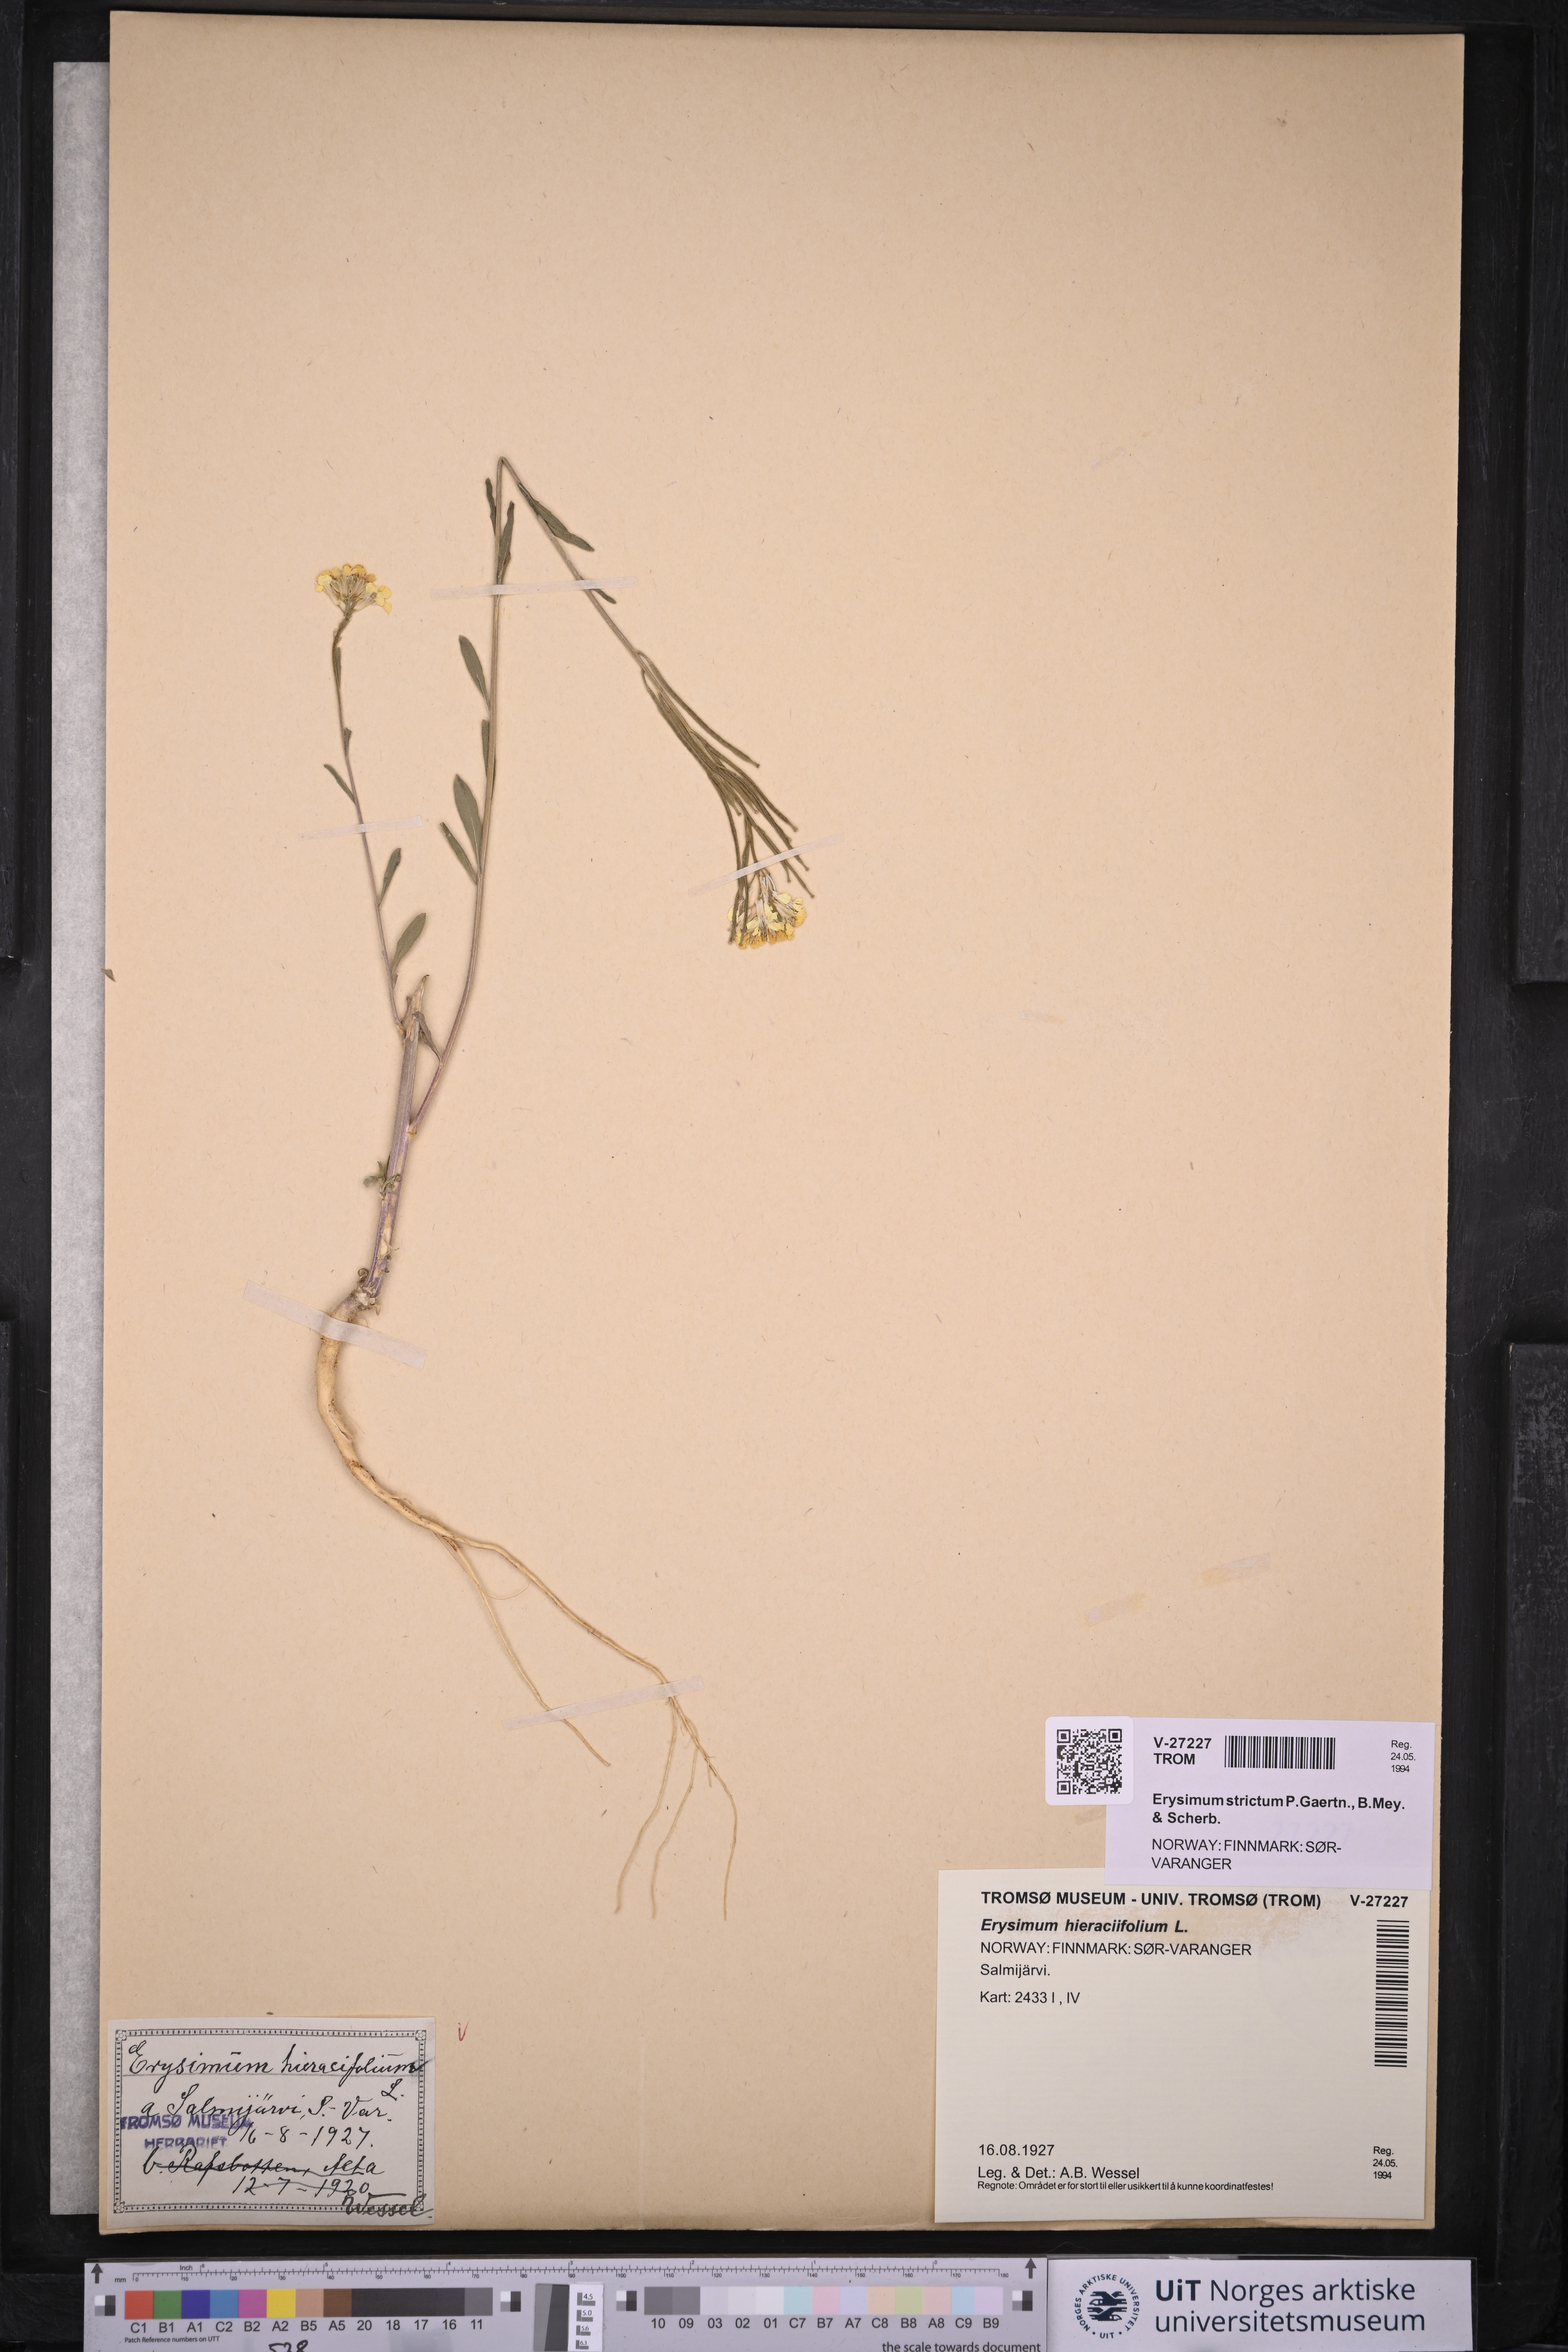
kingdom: Plantae
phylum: Tracheophyta
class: Magnoliopsida
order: Brassicales
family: Brassicaceae
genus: Erysimum
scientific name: Erysimum virgatum
